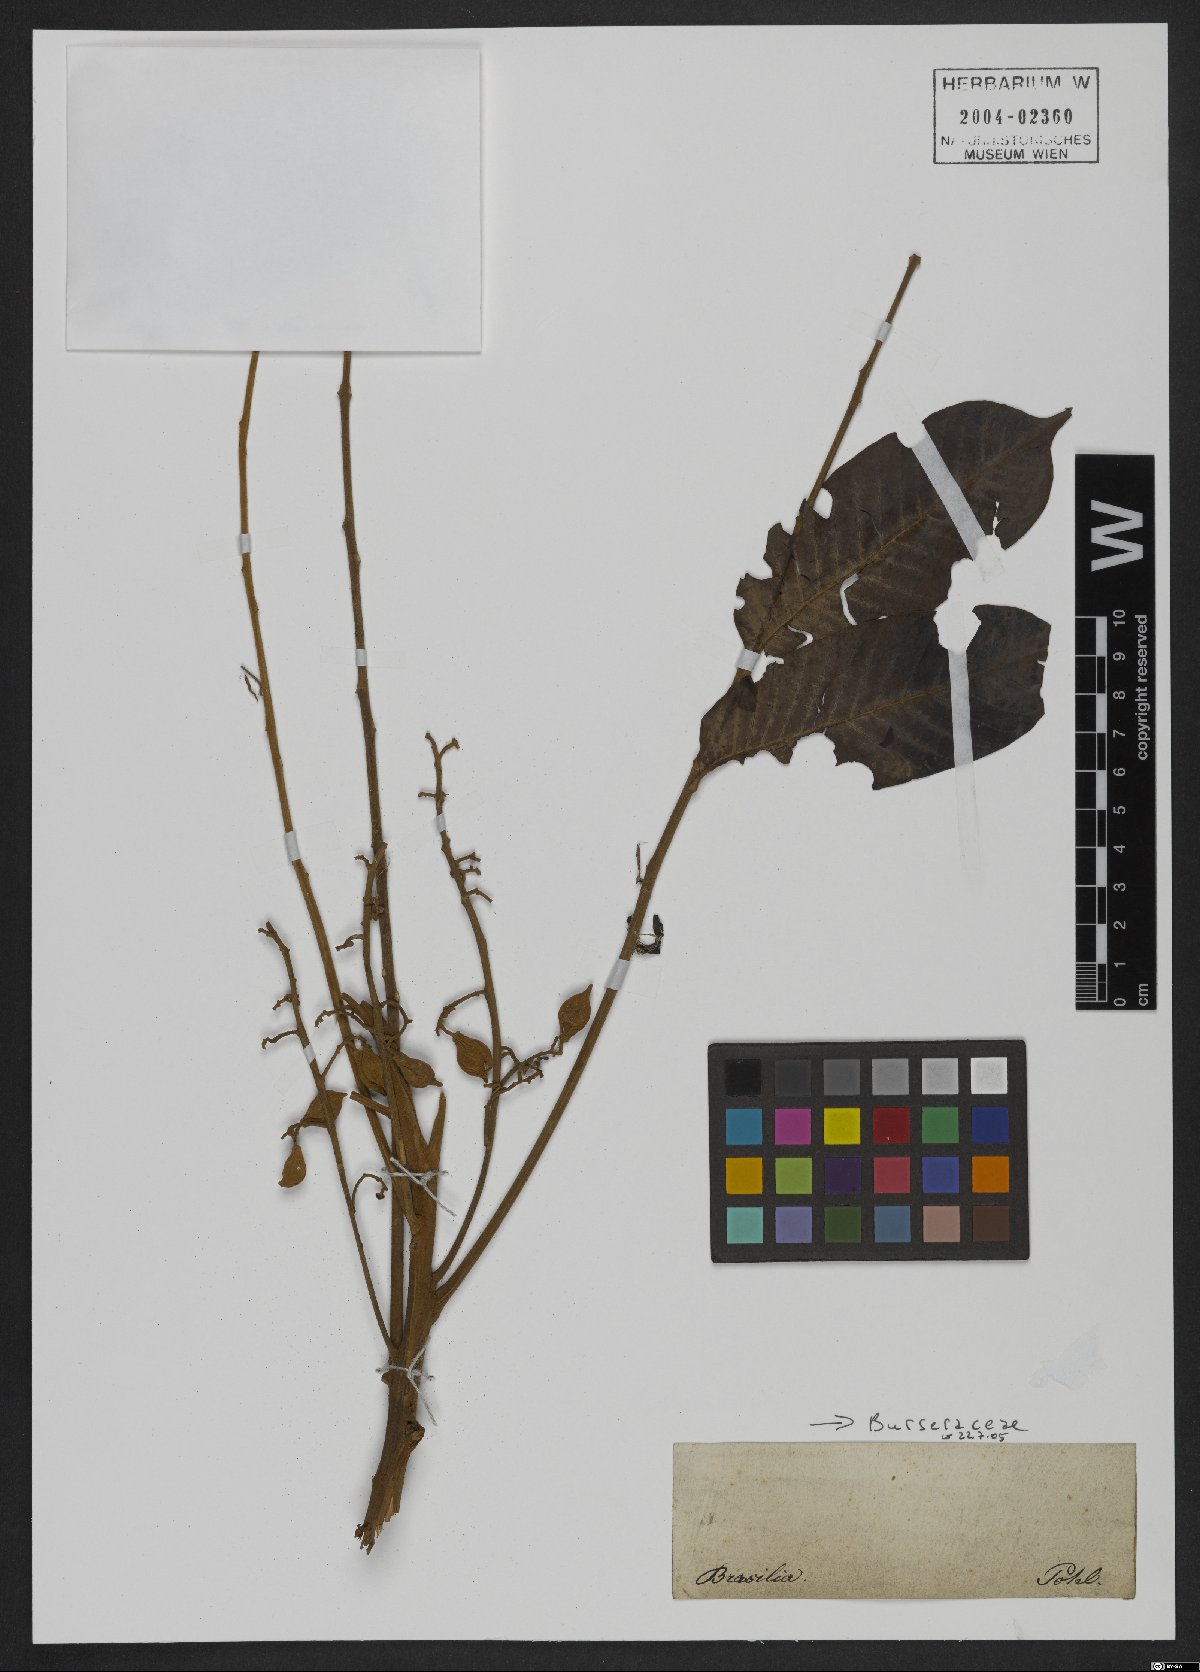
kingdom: Plantae
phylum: Tracheophyta
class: Magnoliopsida
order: Sapindales
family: Meliaceae
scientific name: Meliaceae
